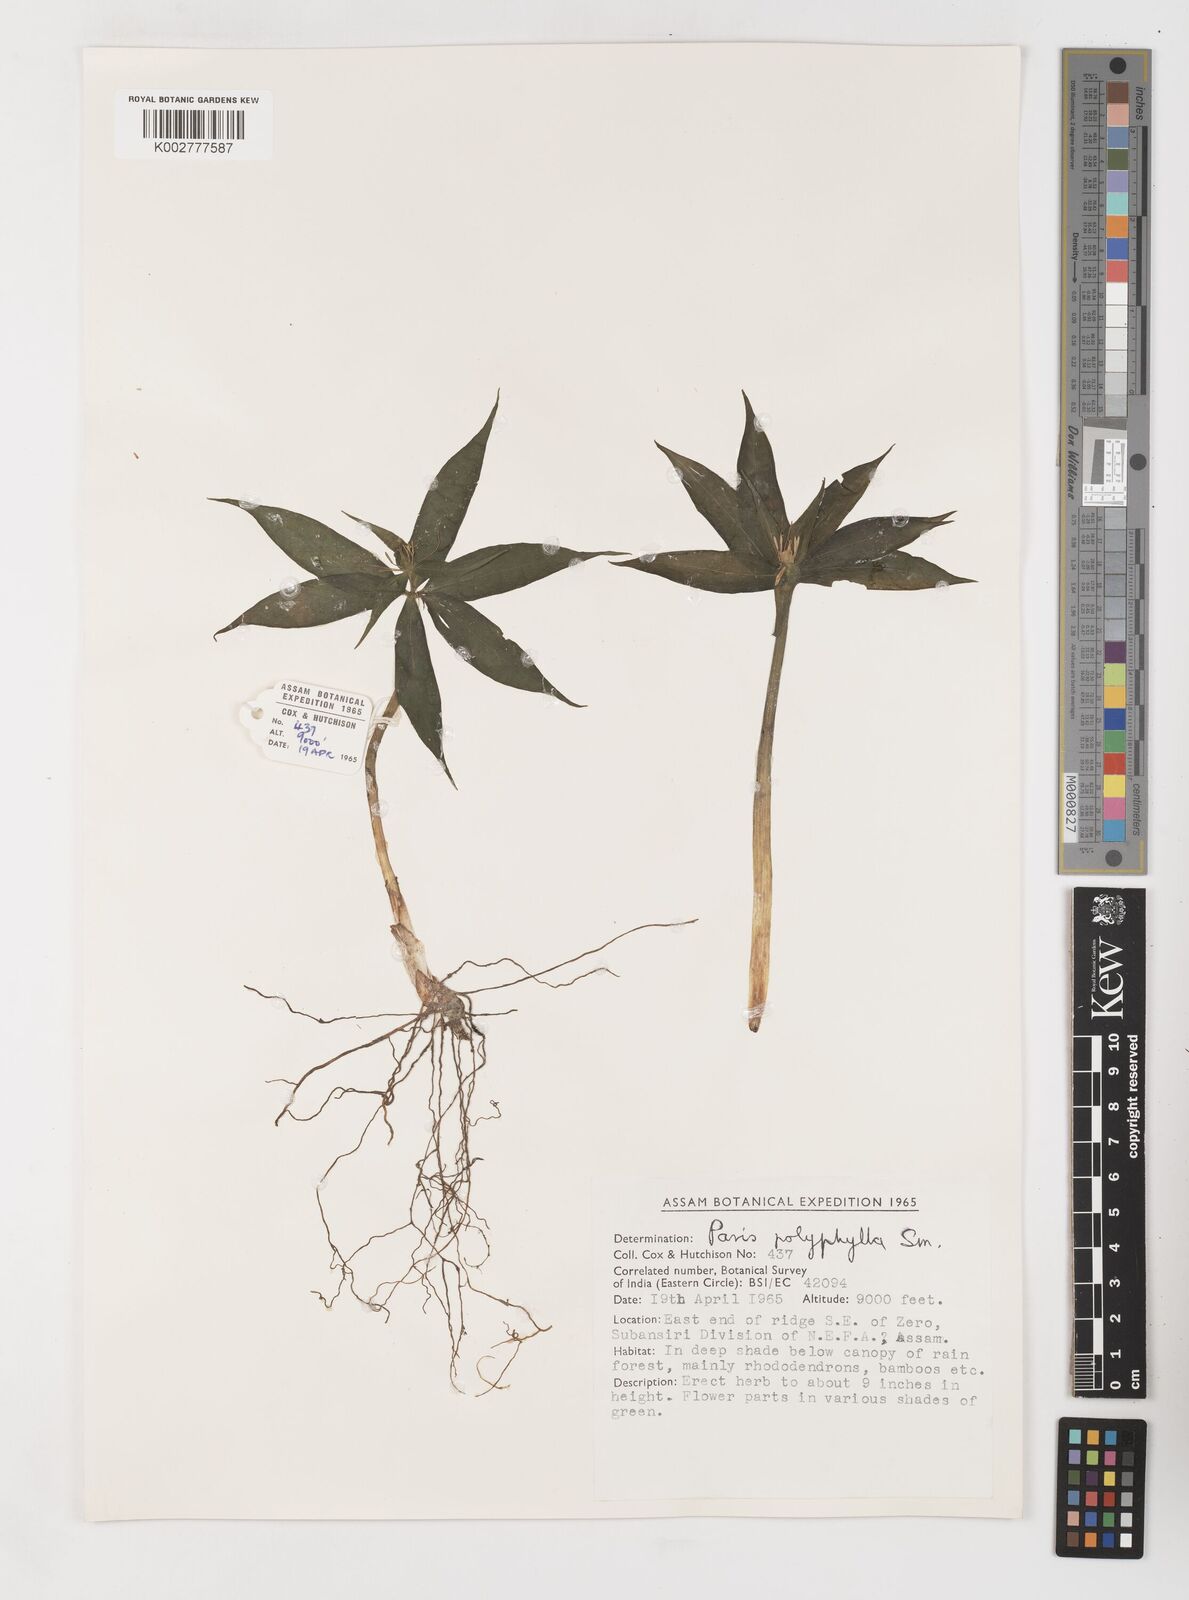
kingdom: Plantae
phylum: Tracheophyta
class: Liliopsida
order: Liliales
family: Melanthiaceae
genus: Paris
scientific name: Paris polyphylla
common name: Love apple
